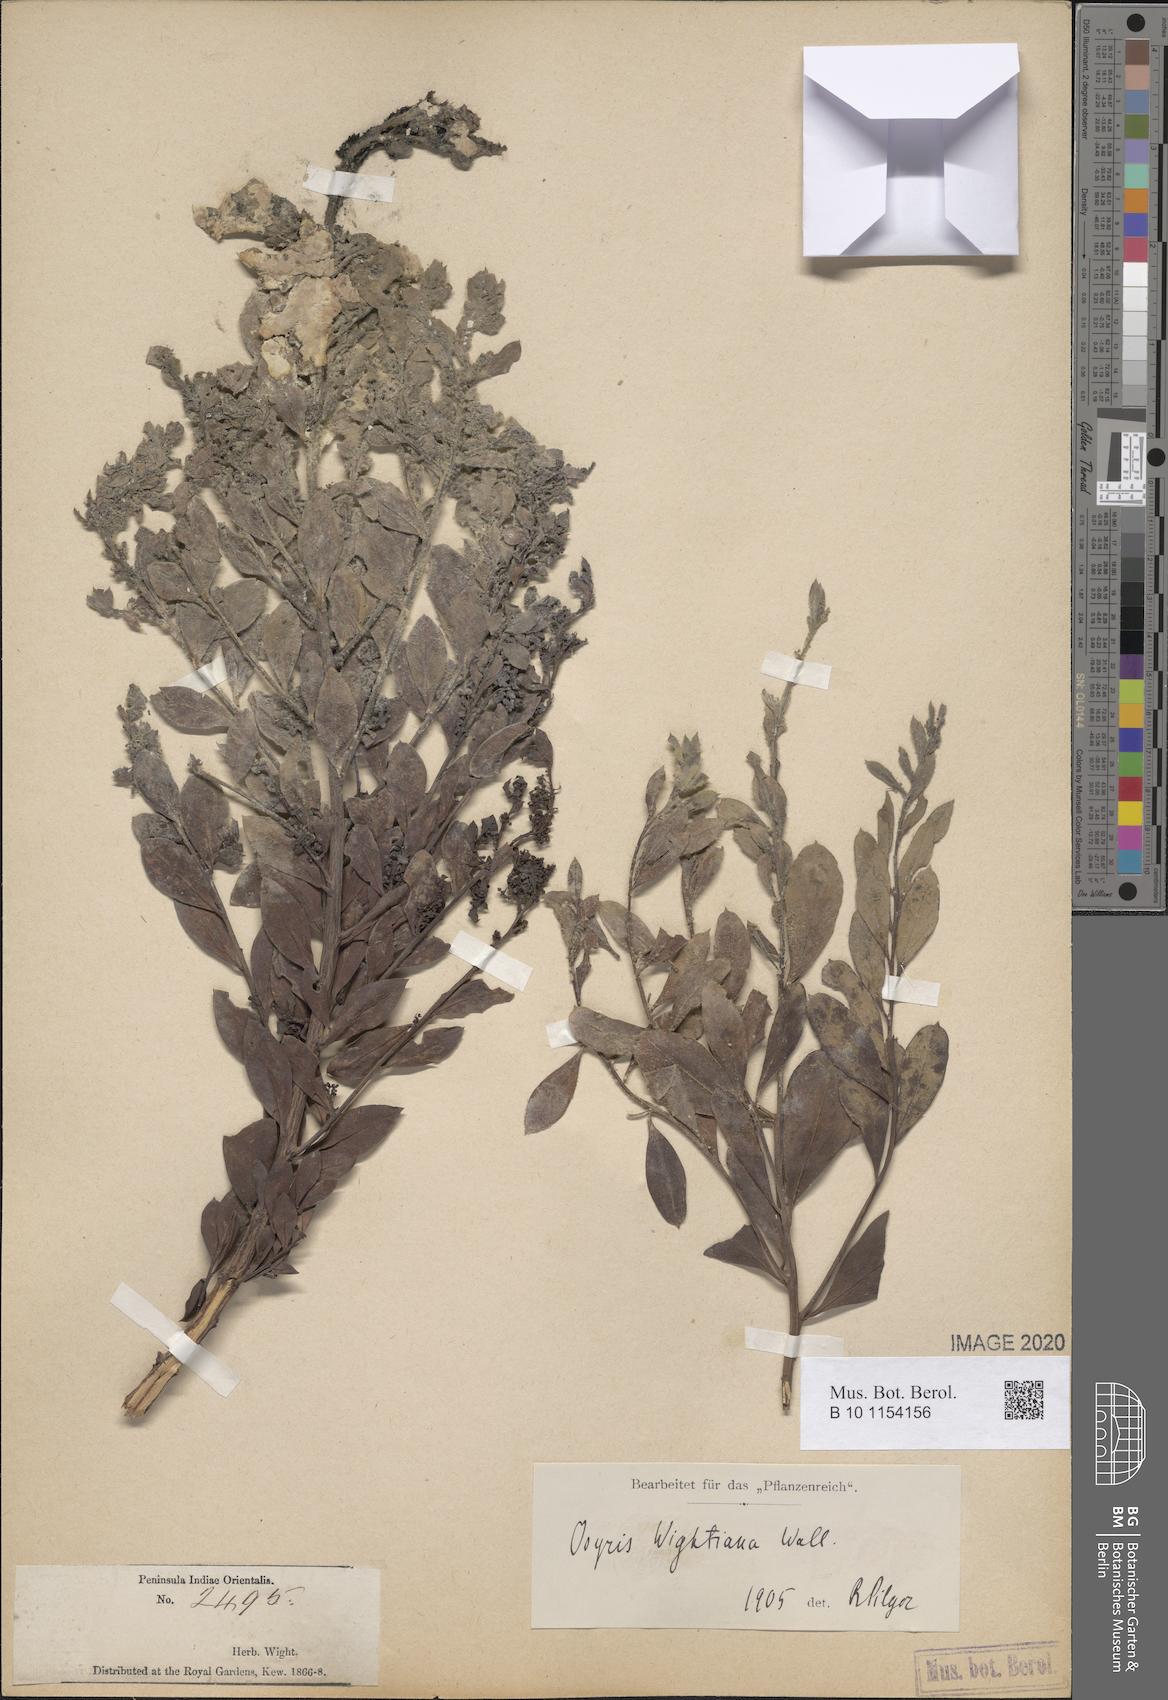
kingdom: Plantae
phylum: Tracheophyta
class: Magnoliopsida
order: Santalales
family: Santalaceae
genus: Osyris
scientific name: Osyris lanceolata
